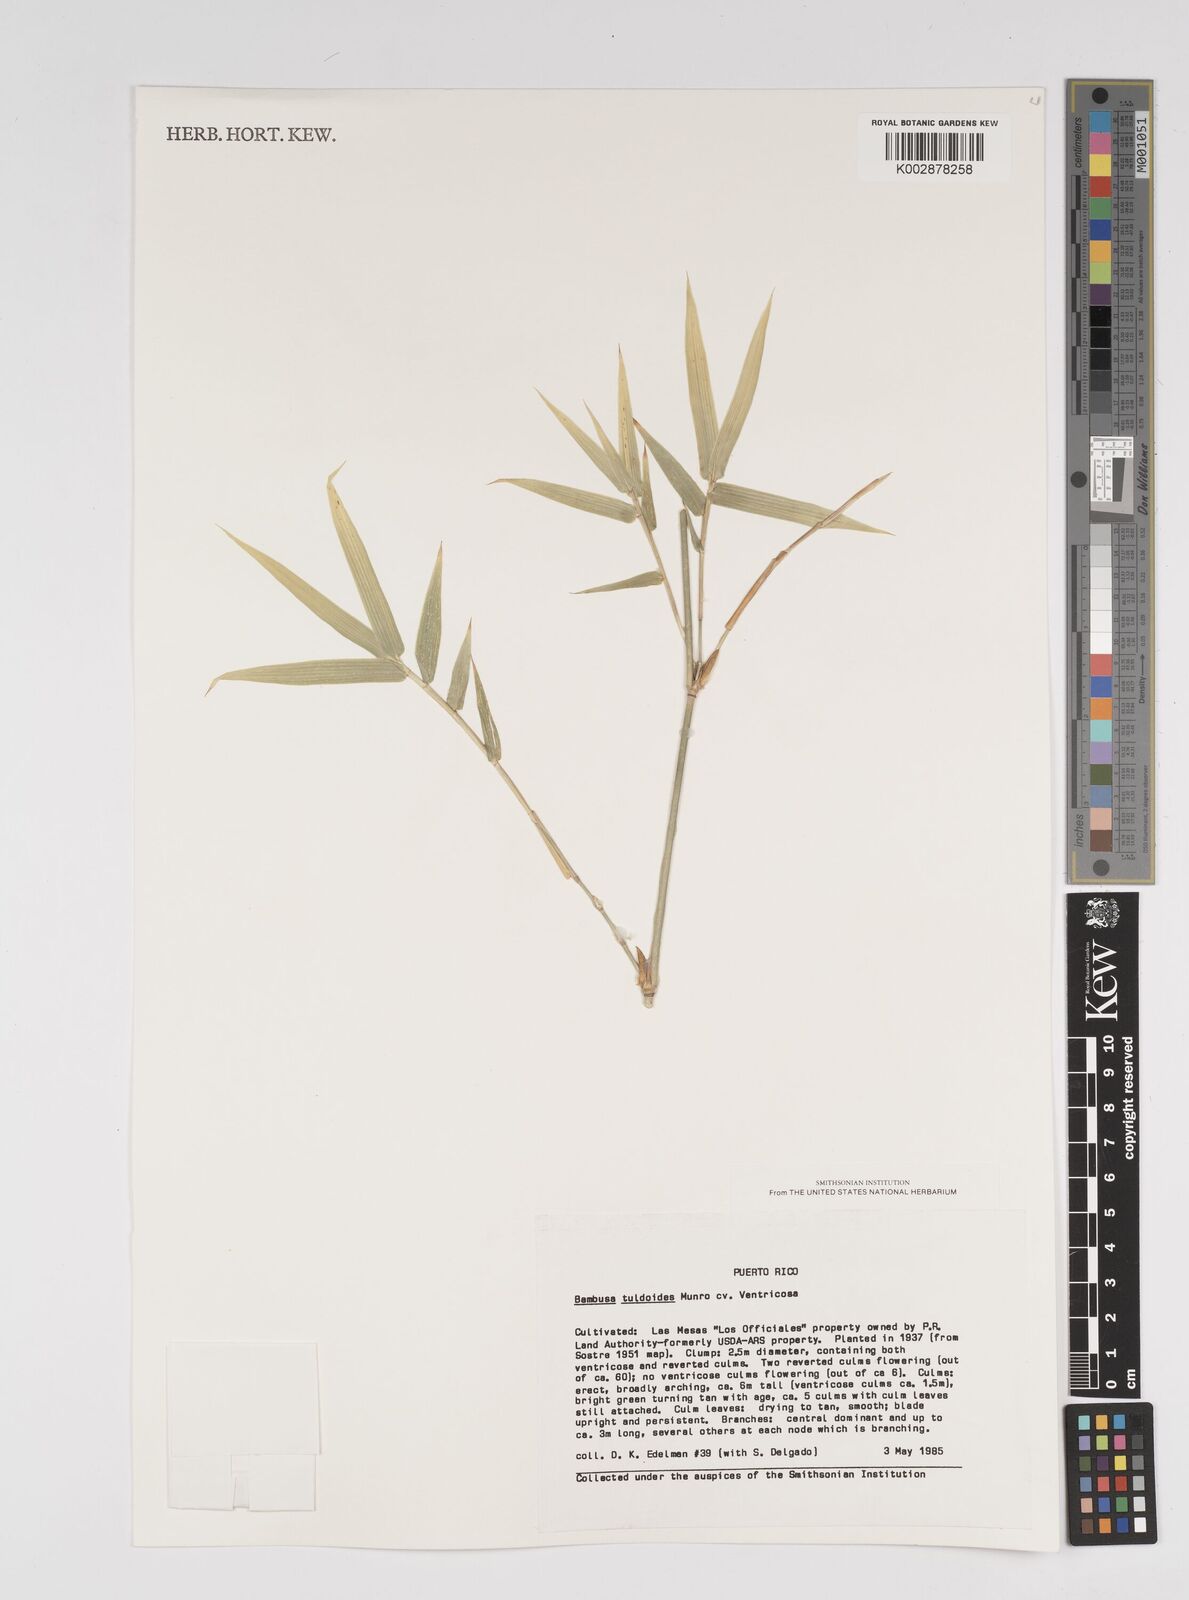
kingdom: Plantae
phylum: Tracheophyta
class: Liliopsida
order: Poales
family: Poaceae
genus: Bambusa
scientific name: Bambusa tuldoides
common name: Verdant bamboo
